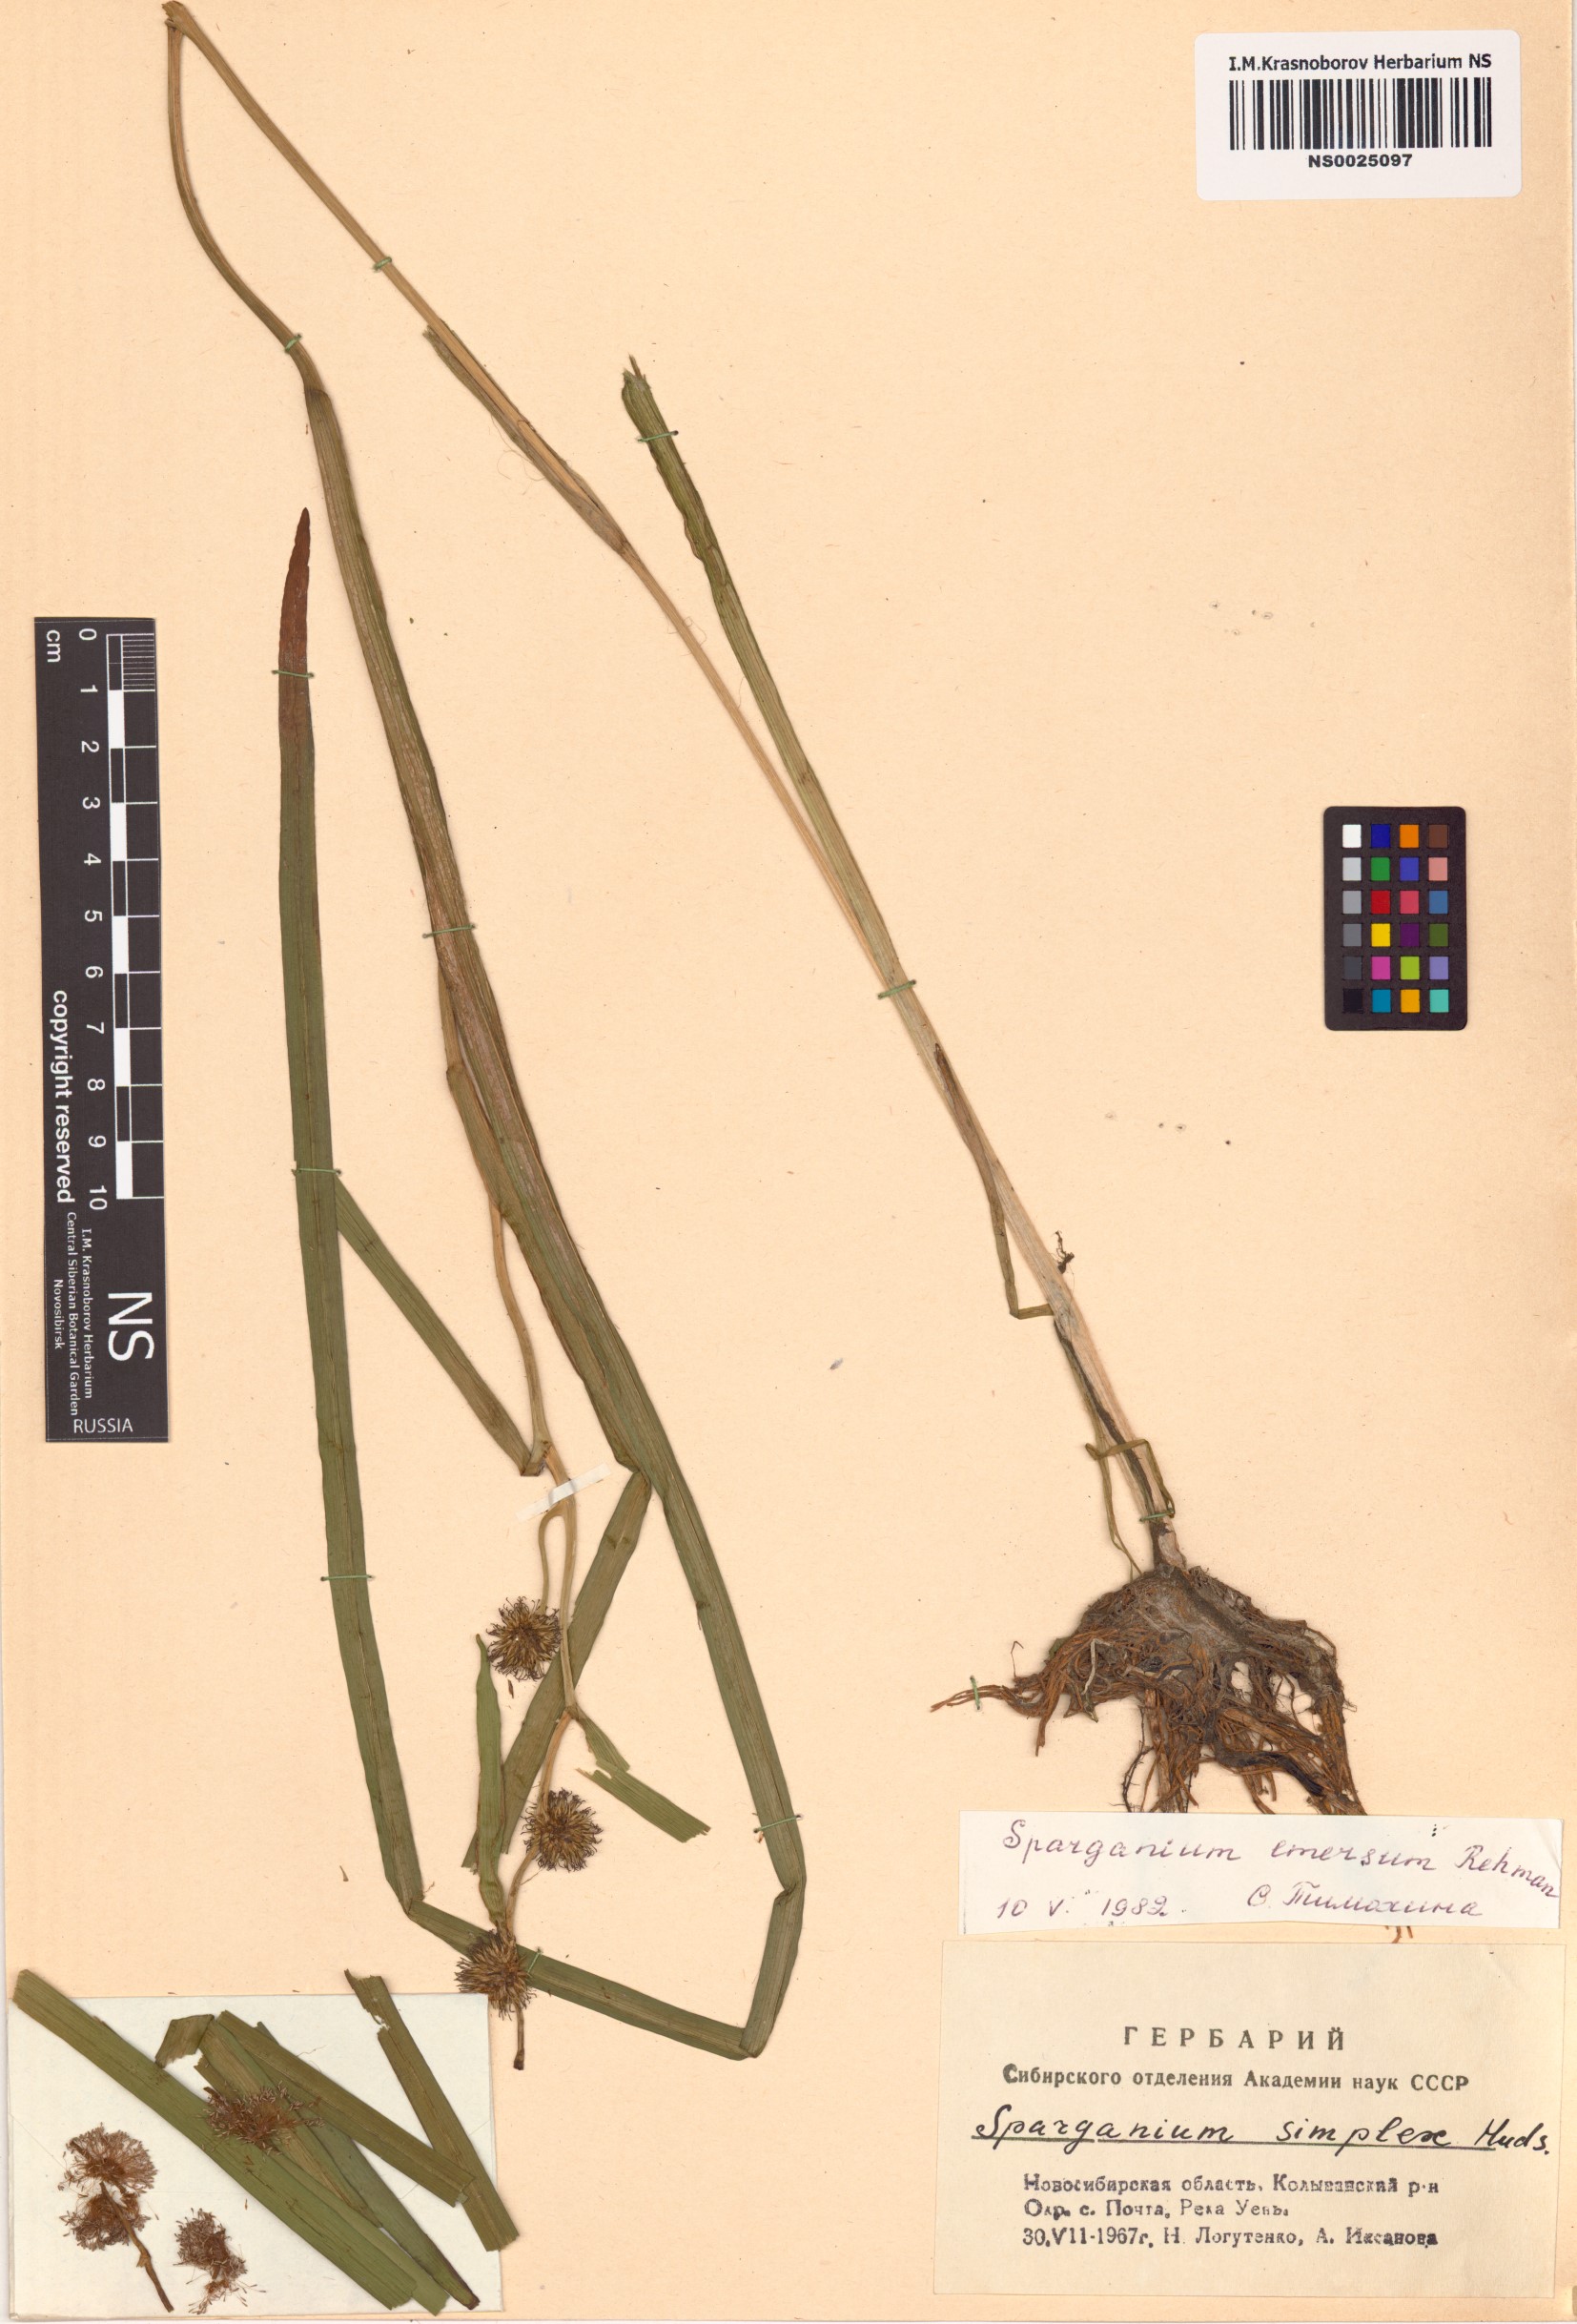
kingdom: Plantae
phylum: Tracheophyta
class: Liliopsida
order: Poales
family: Typhaceae
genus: Sparganium
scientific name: Sparganium emersum
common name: Unbranched bur-reed
